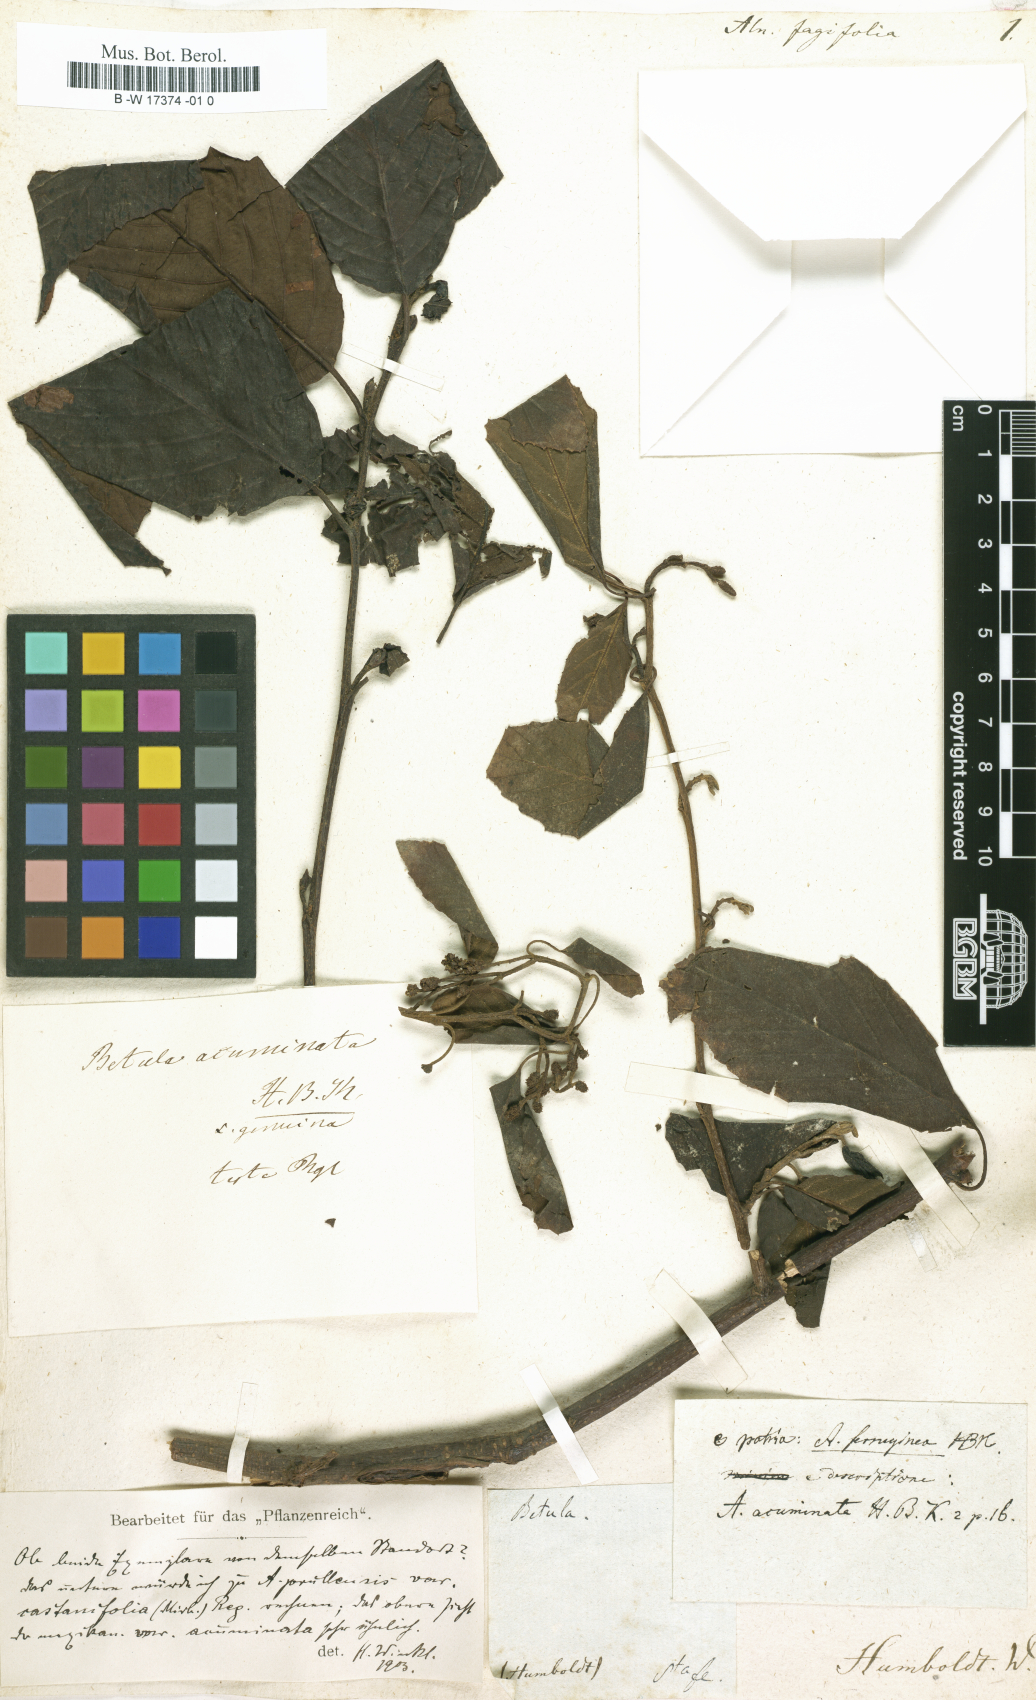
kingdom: Plantae
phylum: Tracheophyta
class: Magnoliopsida
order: Fagales
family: Betulaceae
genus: Alnus
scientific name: Alnus
